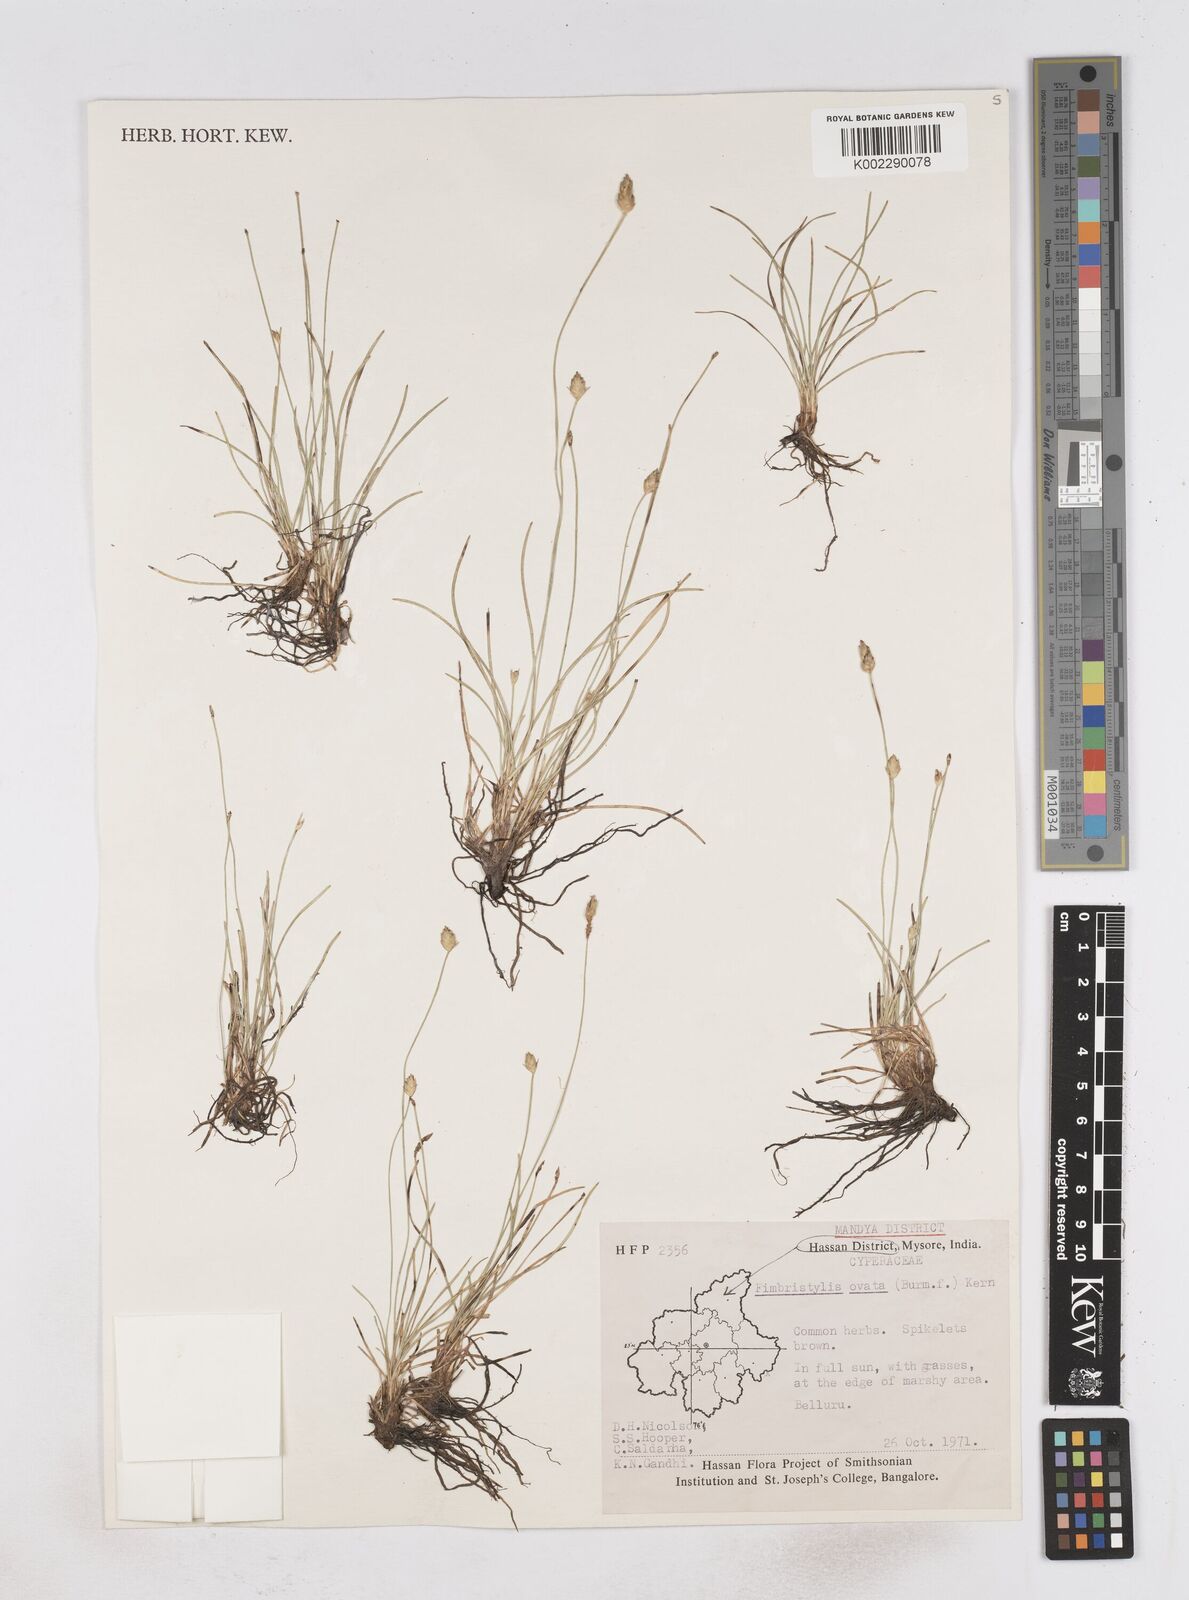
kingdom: Plantae
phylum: Tracheophyta
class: Liliopsida
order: Poales
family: Cyperaceae
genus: Abildgaardia
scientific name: Abildgaardia ovata
